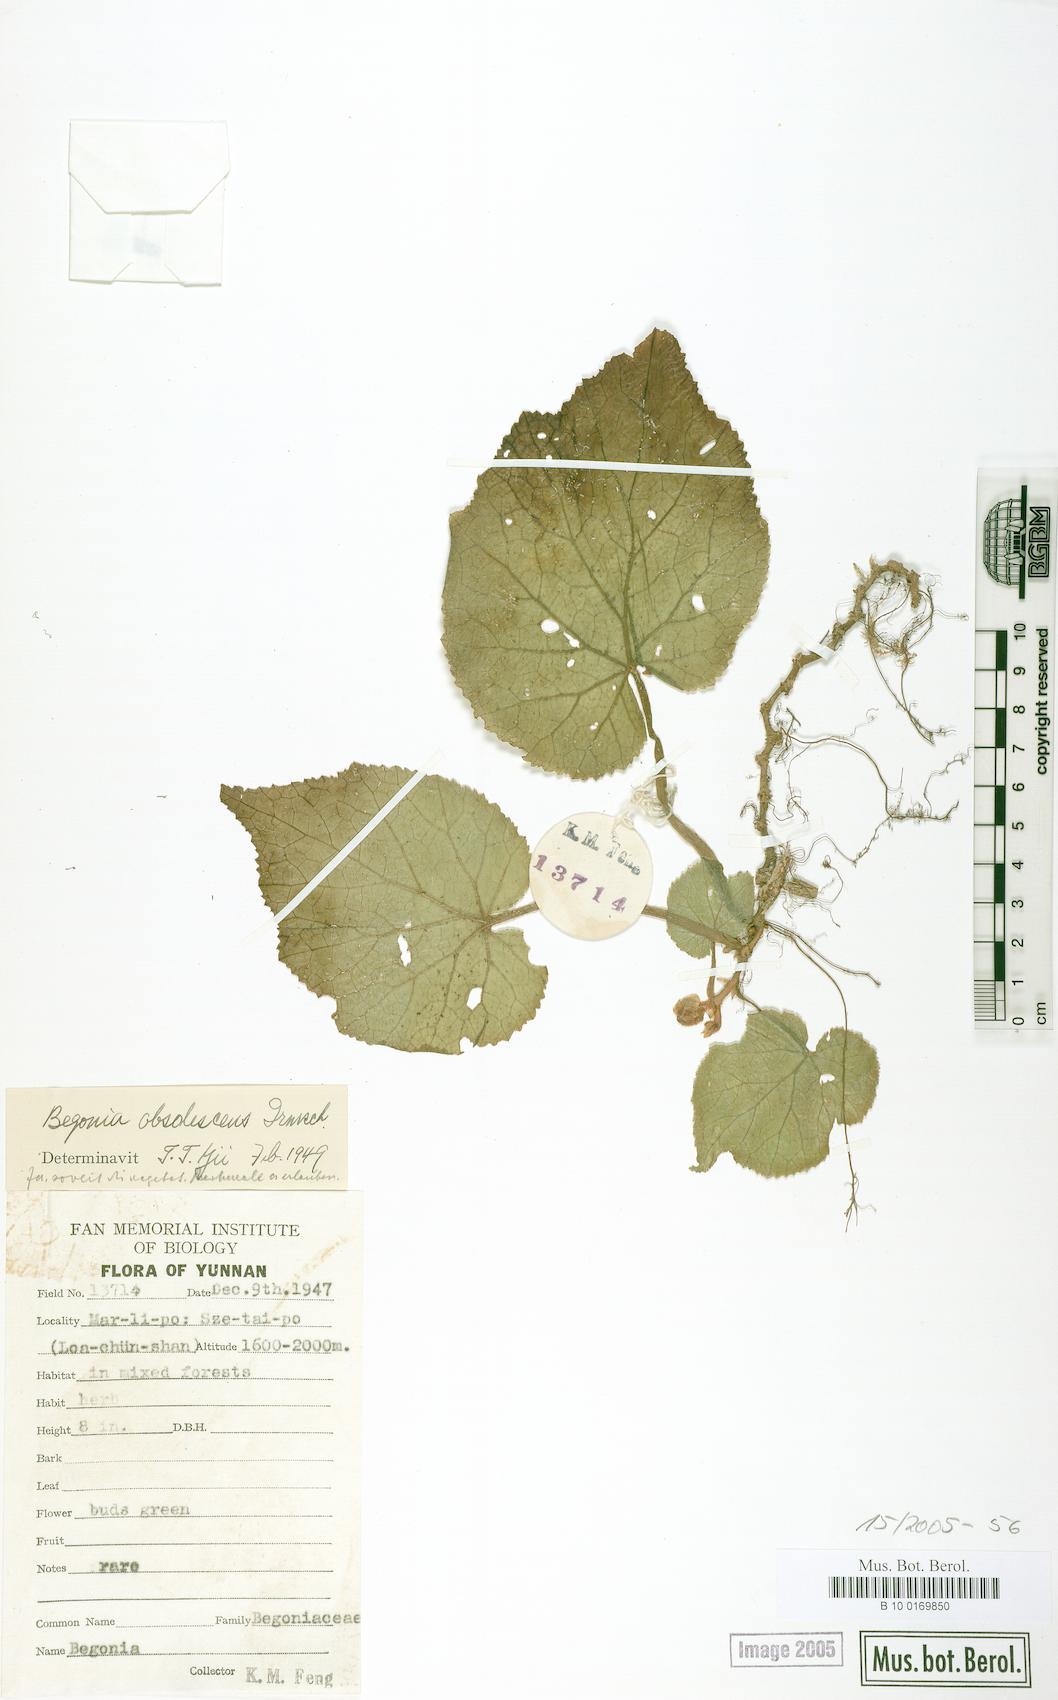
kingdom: Plantae
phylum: Tracheophyta
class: Magnoliopsida
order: Cucurbitales
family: Begoniaceae
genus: Begonia
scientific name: Begonia obsolescens
